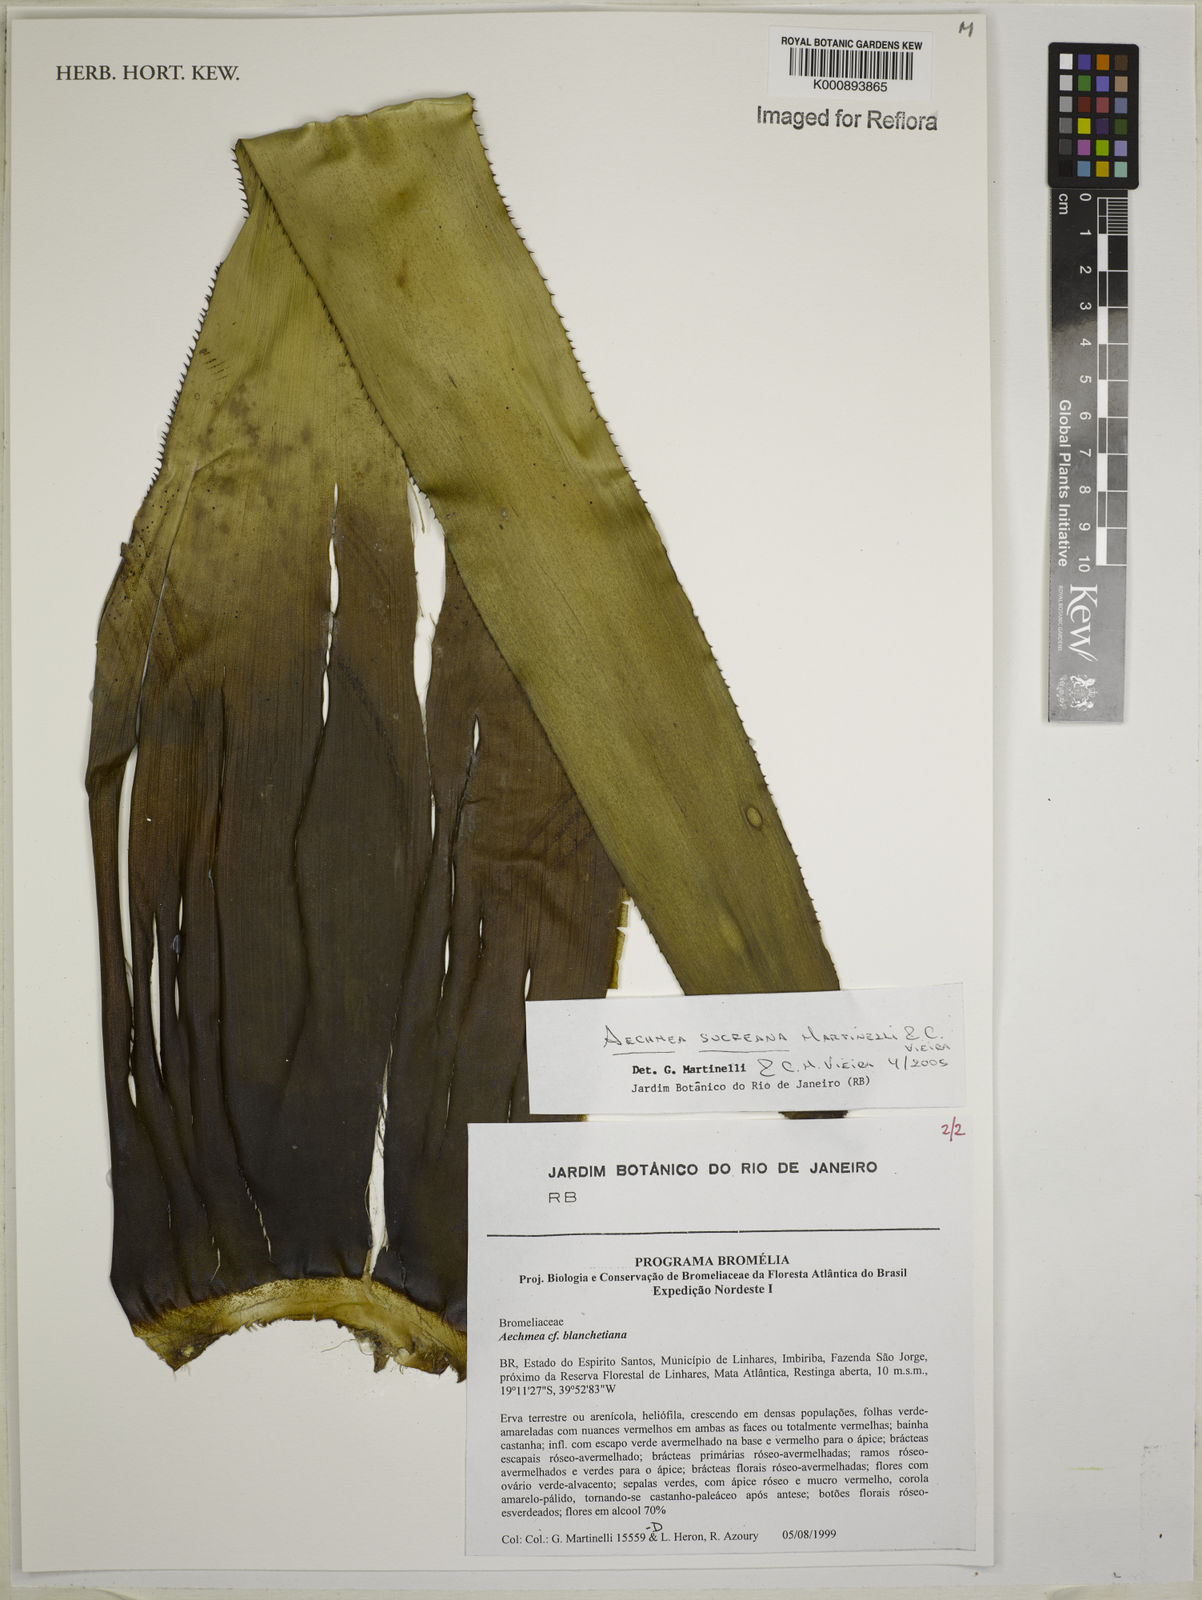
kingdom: Plantae
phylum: Tracheophyta
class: Liliopsida
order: Poales
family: Bromeliaceae
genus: Aechmea
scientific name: Aechmea sucreana
